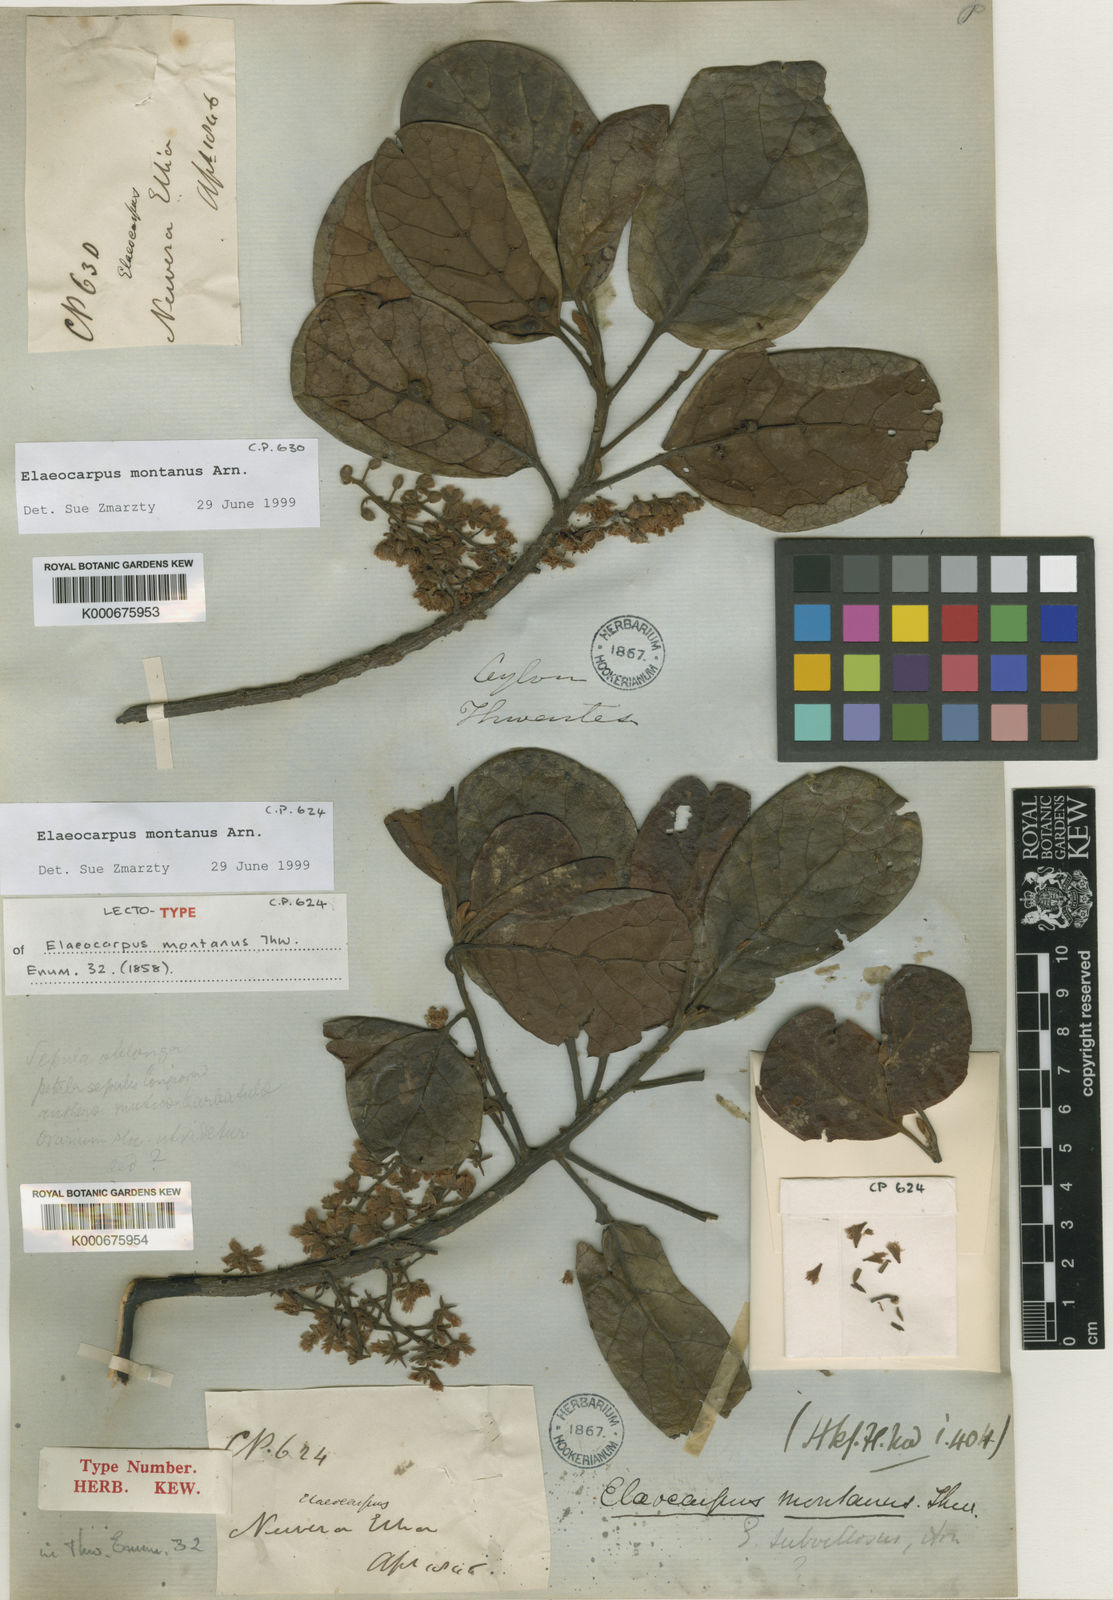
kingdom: Plantae
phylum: Tracheophyta
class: Magnoliopsida
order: Oxalidales
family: Elaeocarpaceae
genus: Elaeocarpus
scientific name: Elaeocarpus montanus
